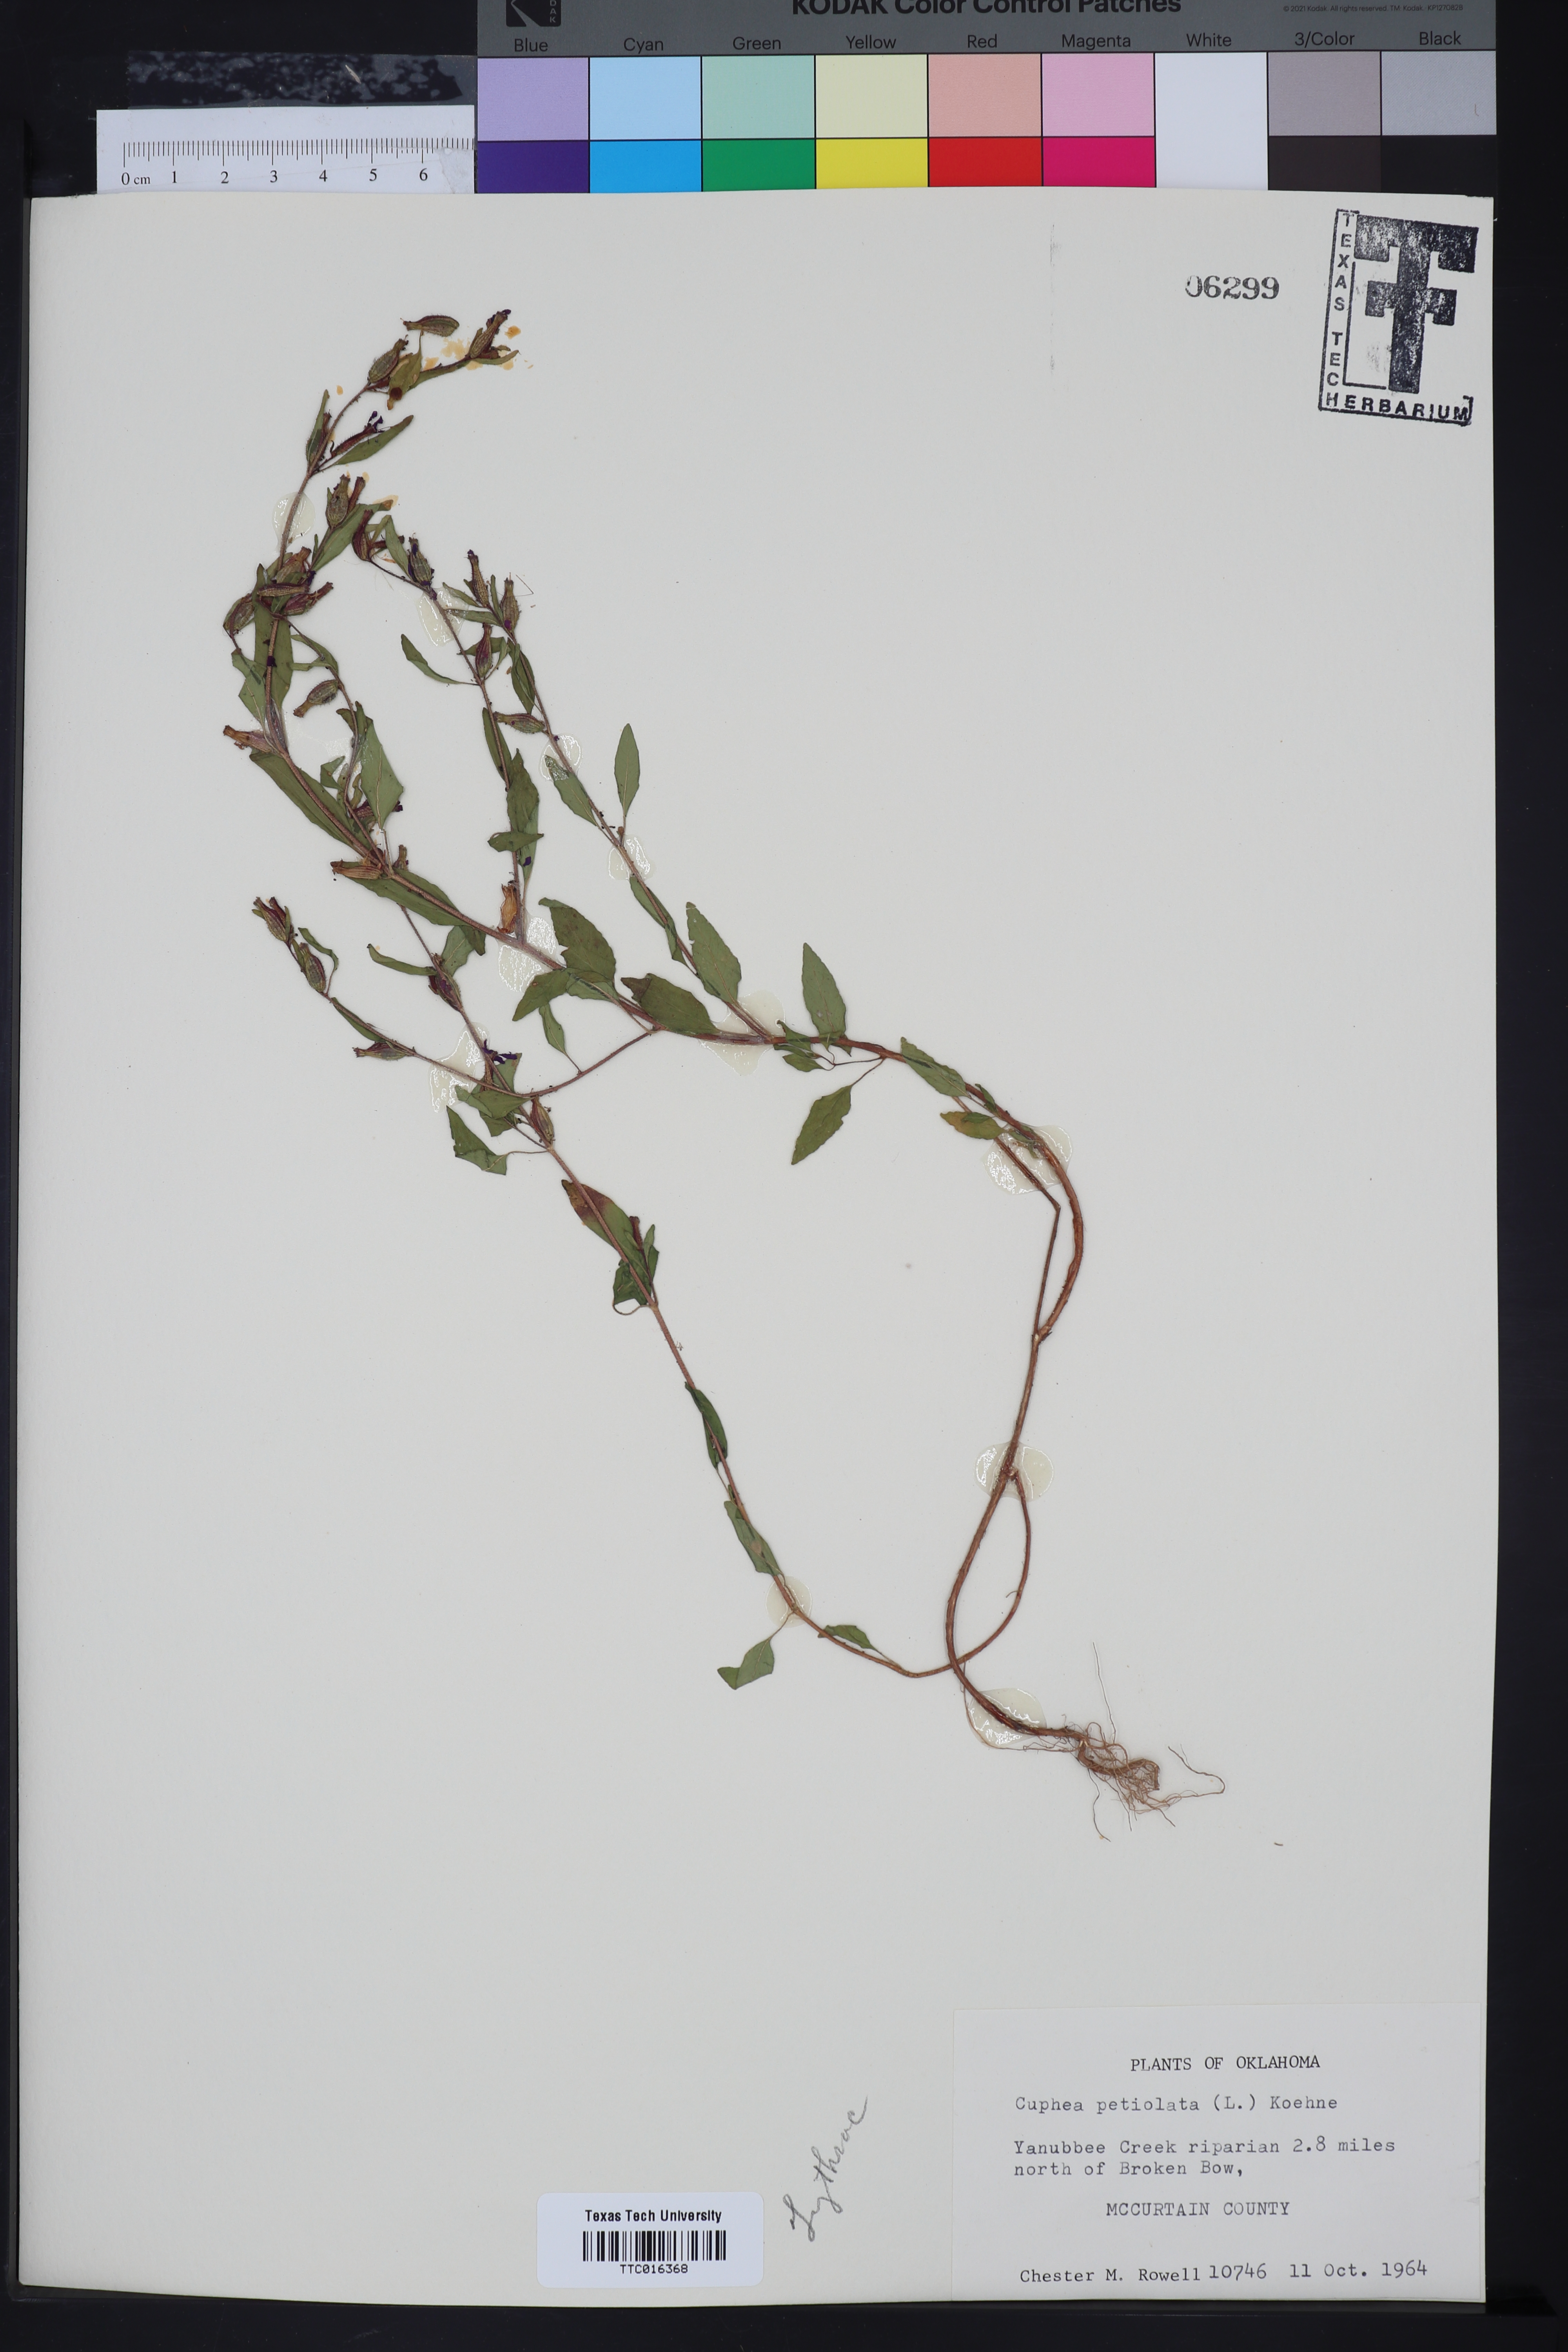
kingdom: Plantae
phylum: Tracheophyta
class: Magnoliopsida
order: Myrtales
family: Lythraceae
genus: Cuphea
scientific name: Cuphea viscosissima
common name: Clammy cuphea
